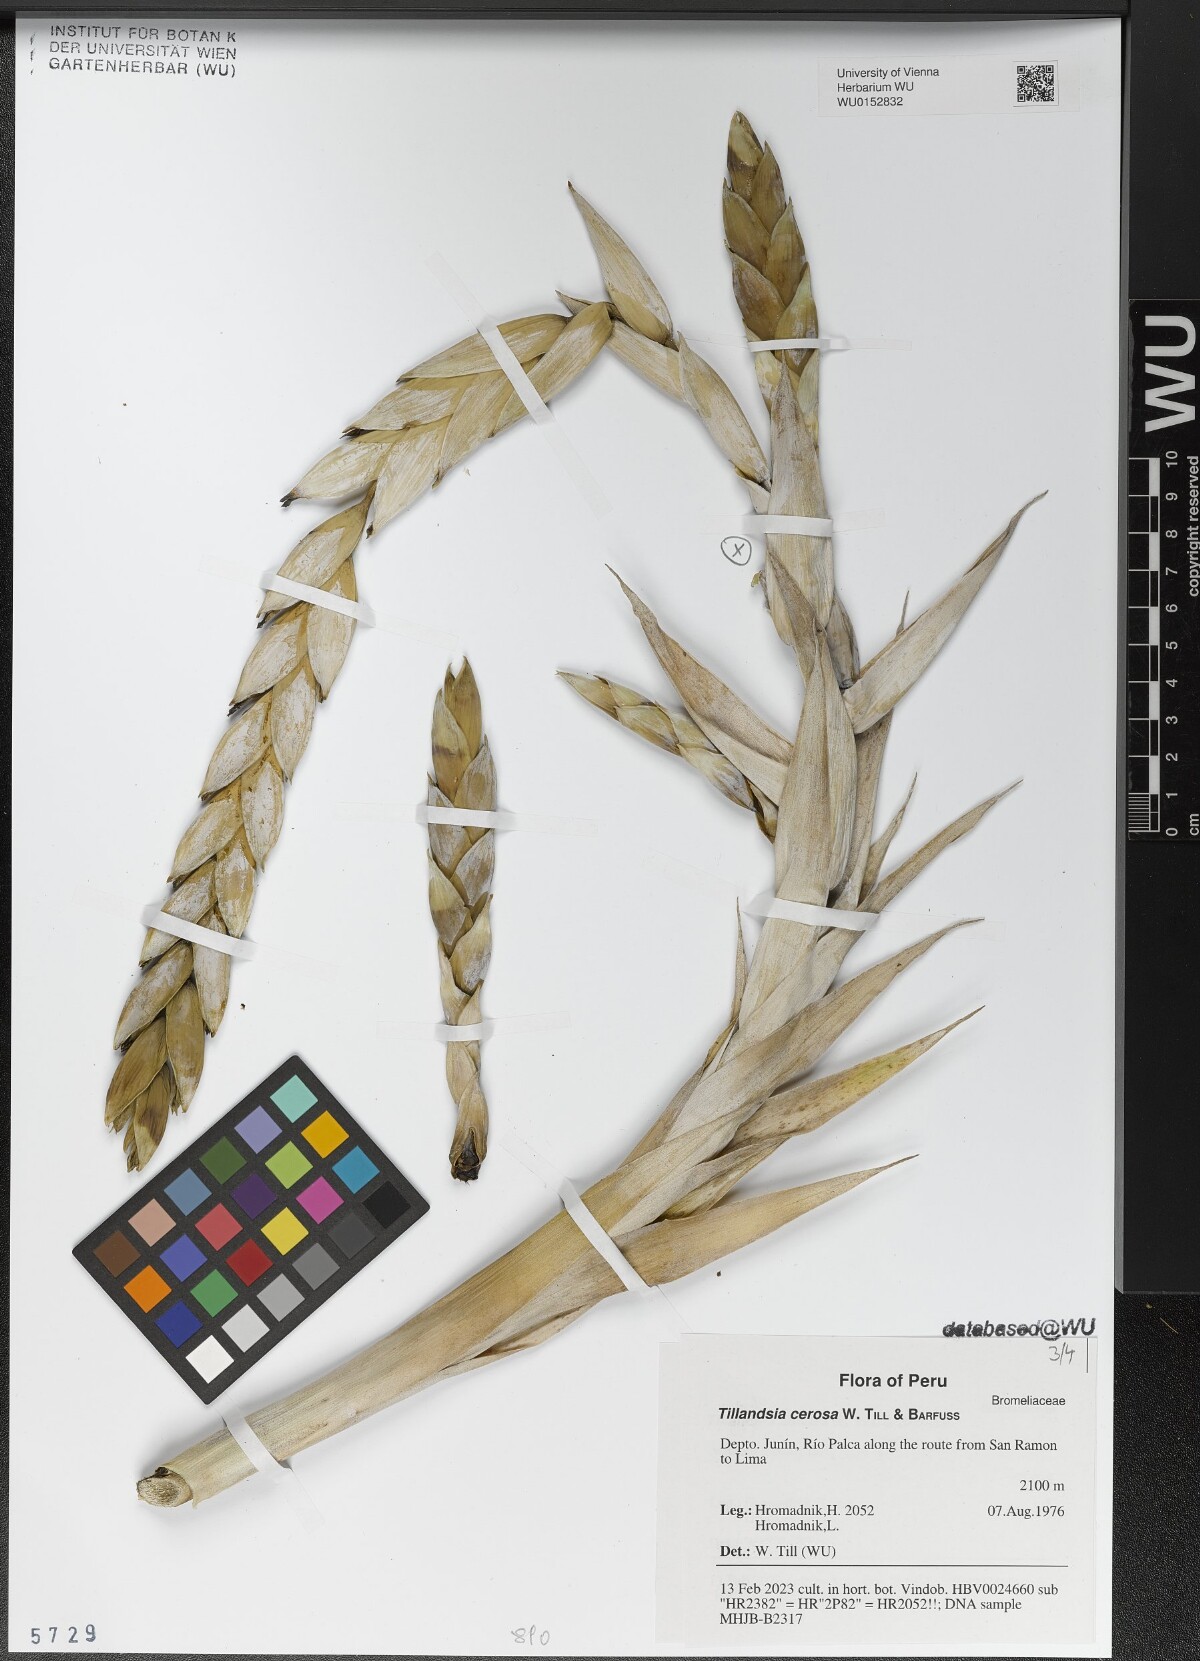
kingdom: Plantae
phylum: Tracheophyta
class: Liliopsida
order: Poales
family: Bromeliaceae
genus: Tillandsia
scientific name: Tillandsia cernua
